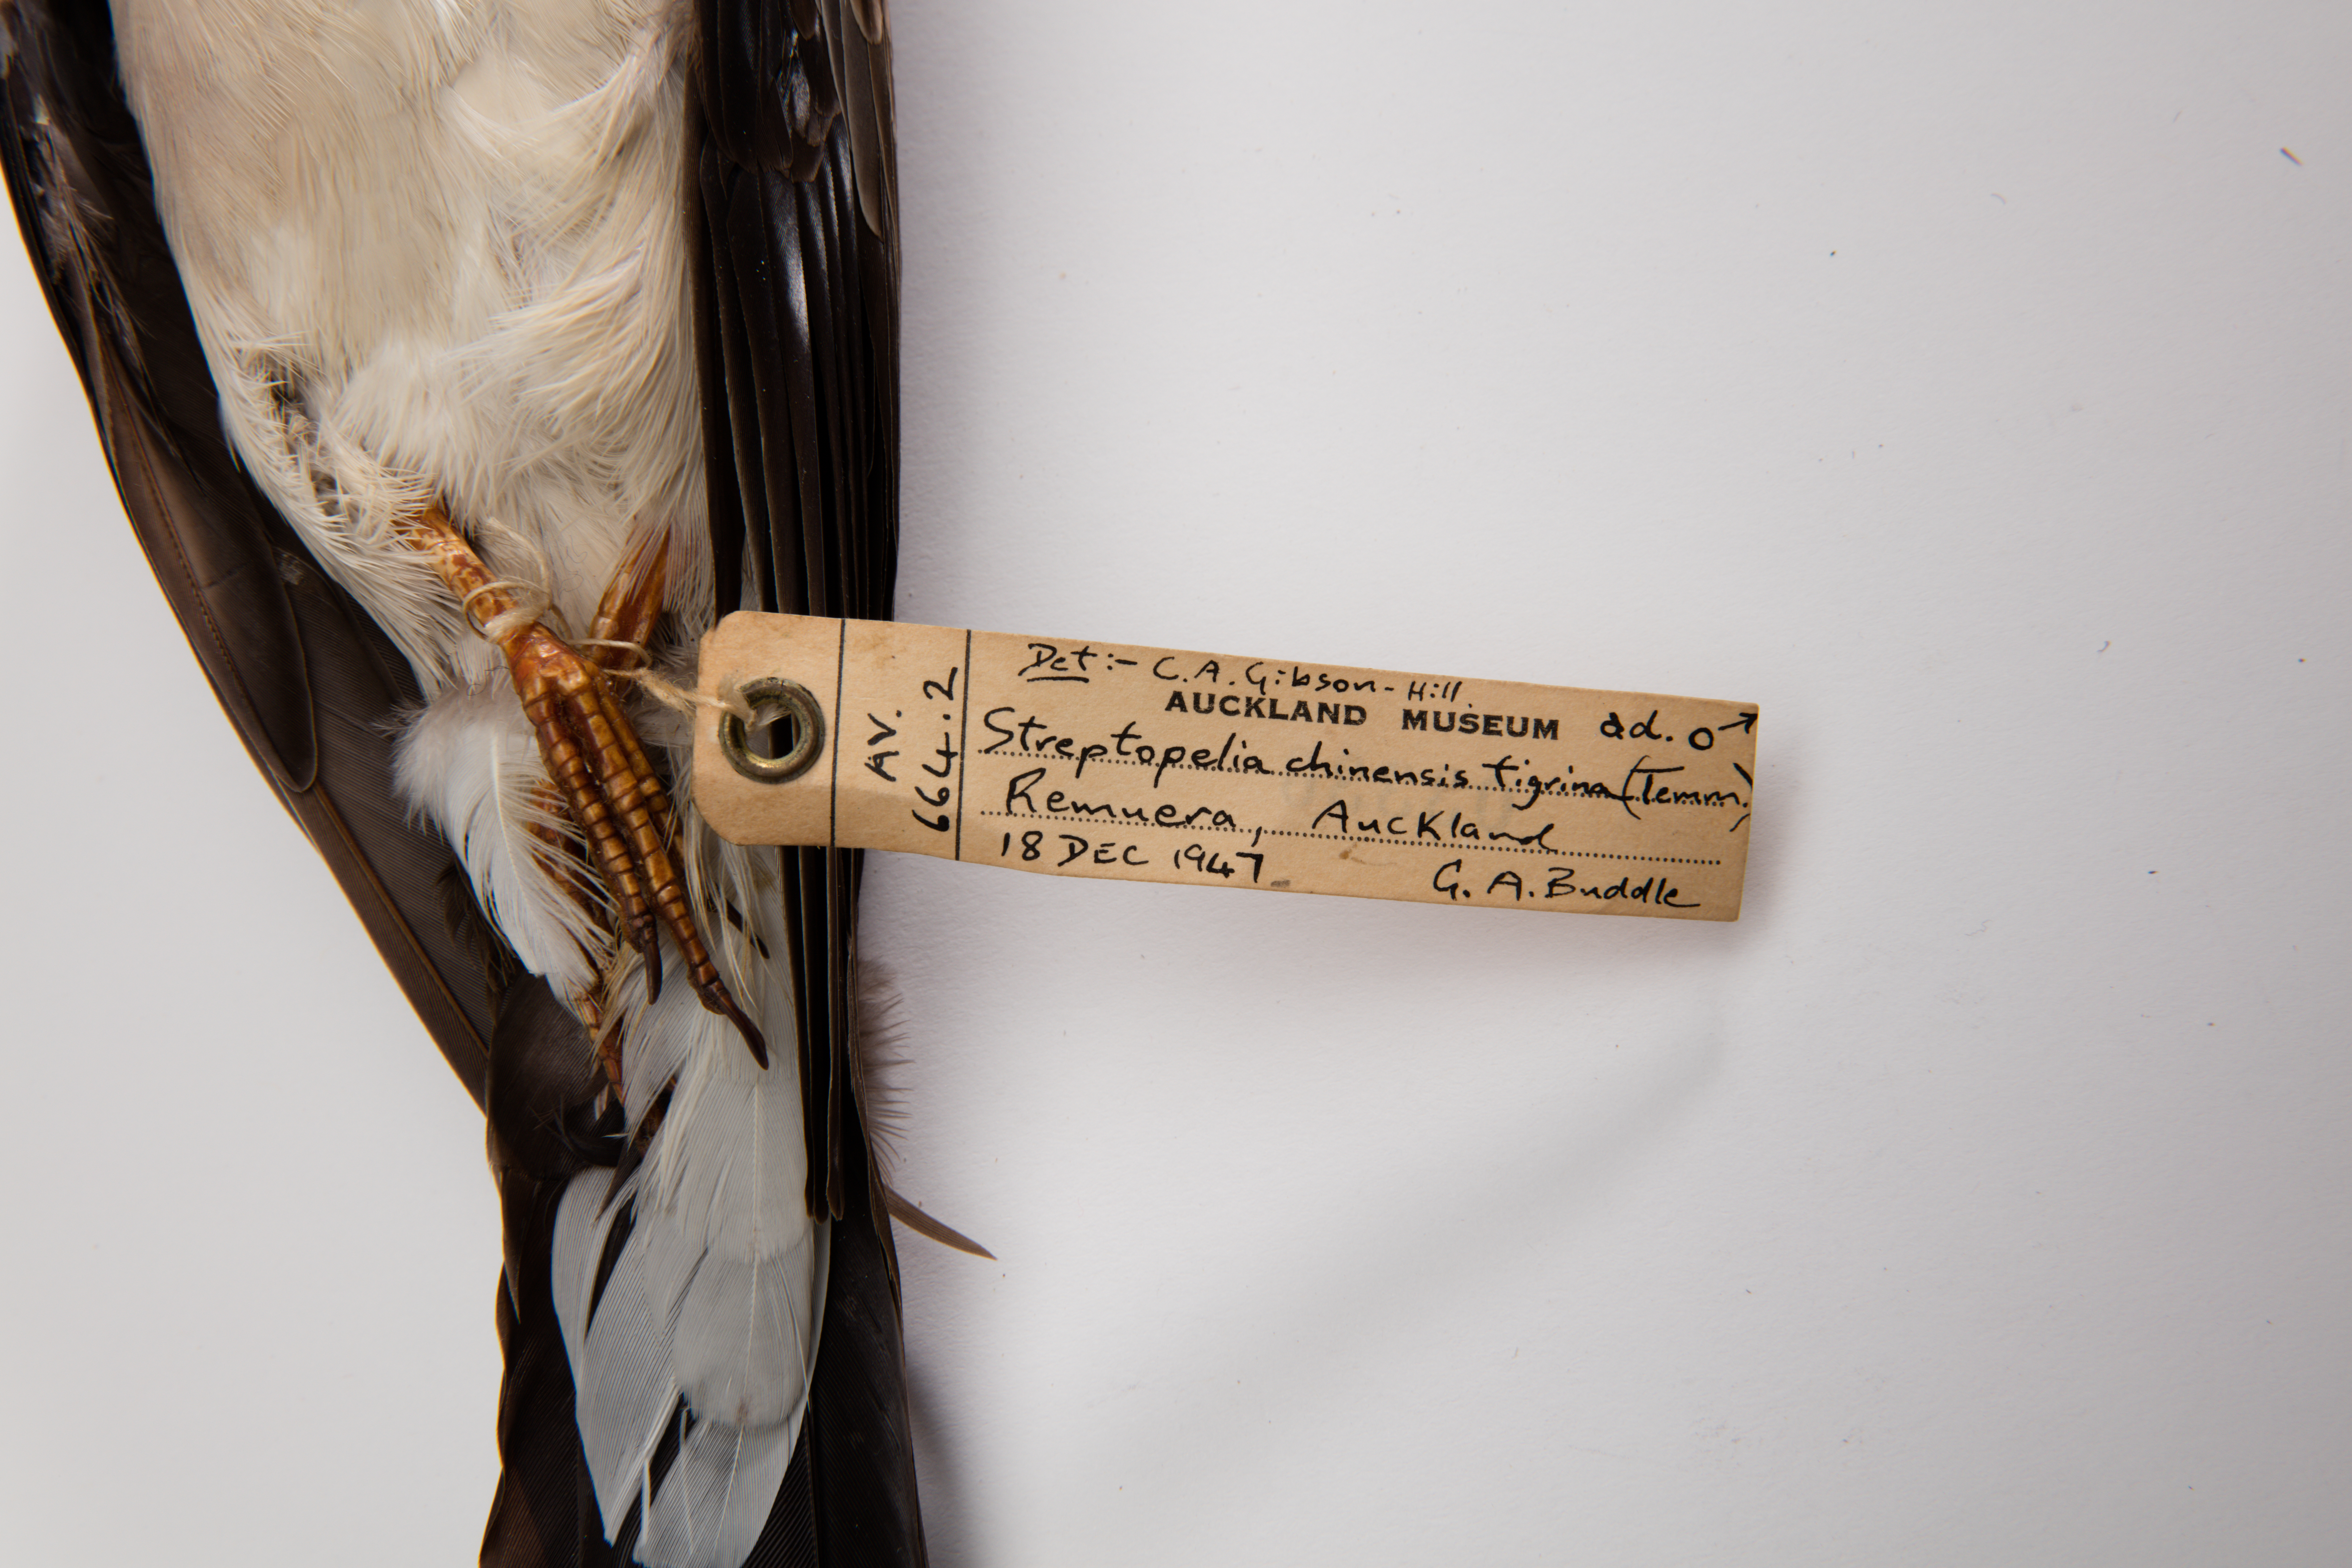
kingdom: Animalia
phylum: Chordata
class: Aves
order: Columbiformes
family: Columbidae
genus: Spilopelia
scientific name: Spilopelia chinensis
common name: Spotted dove
